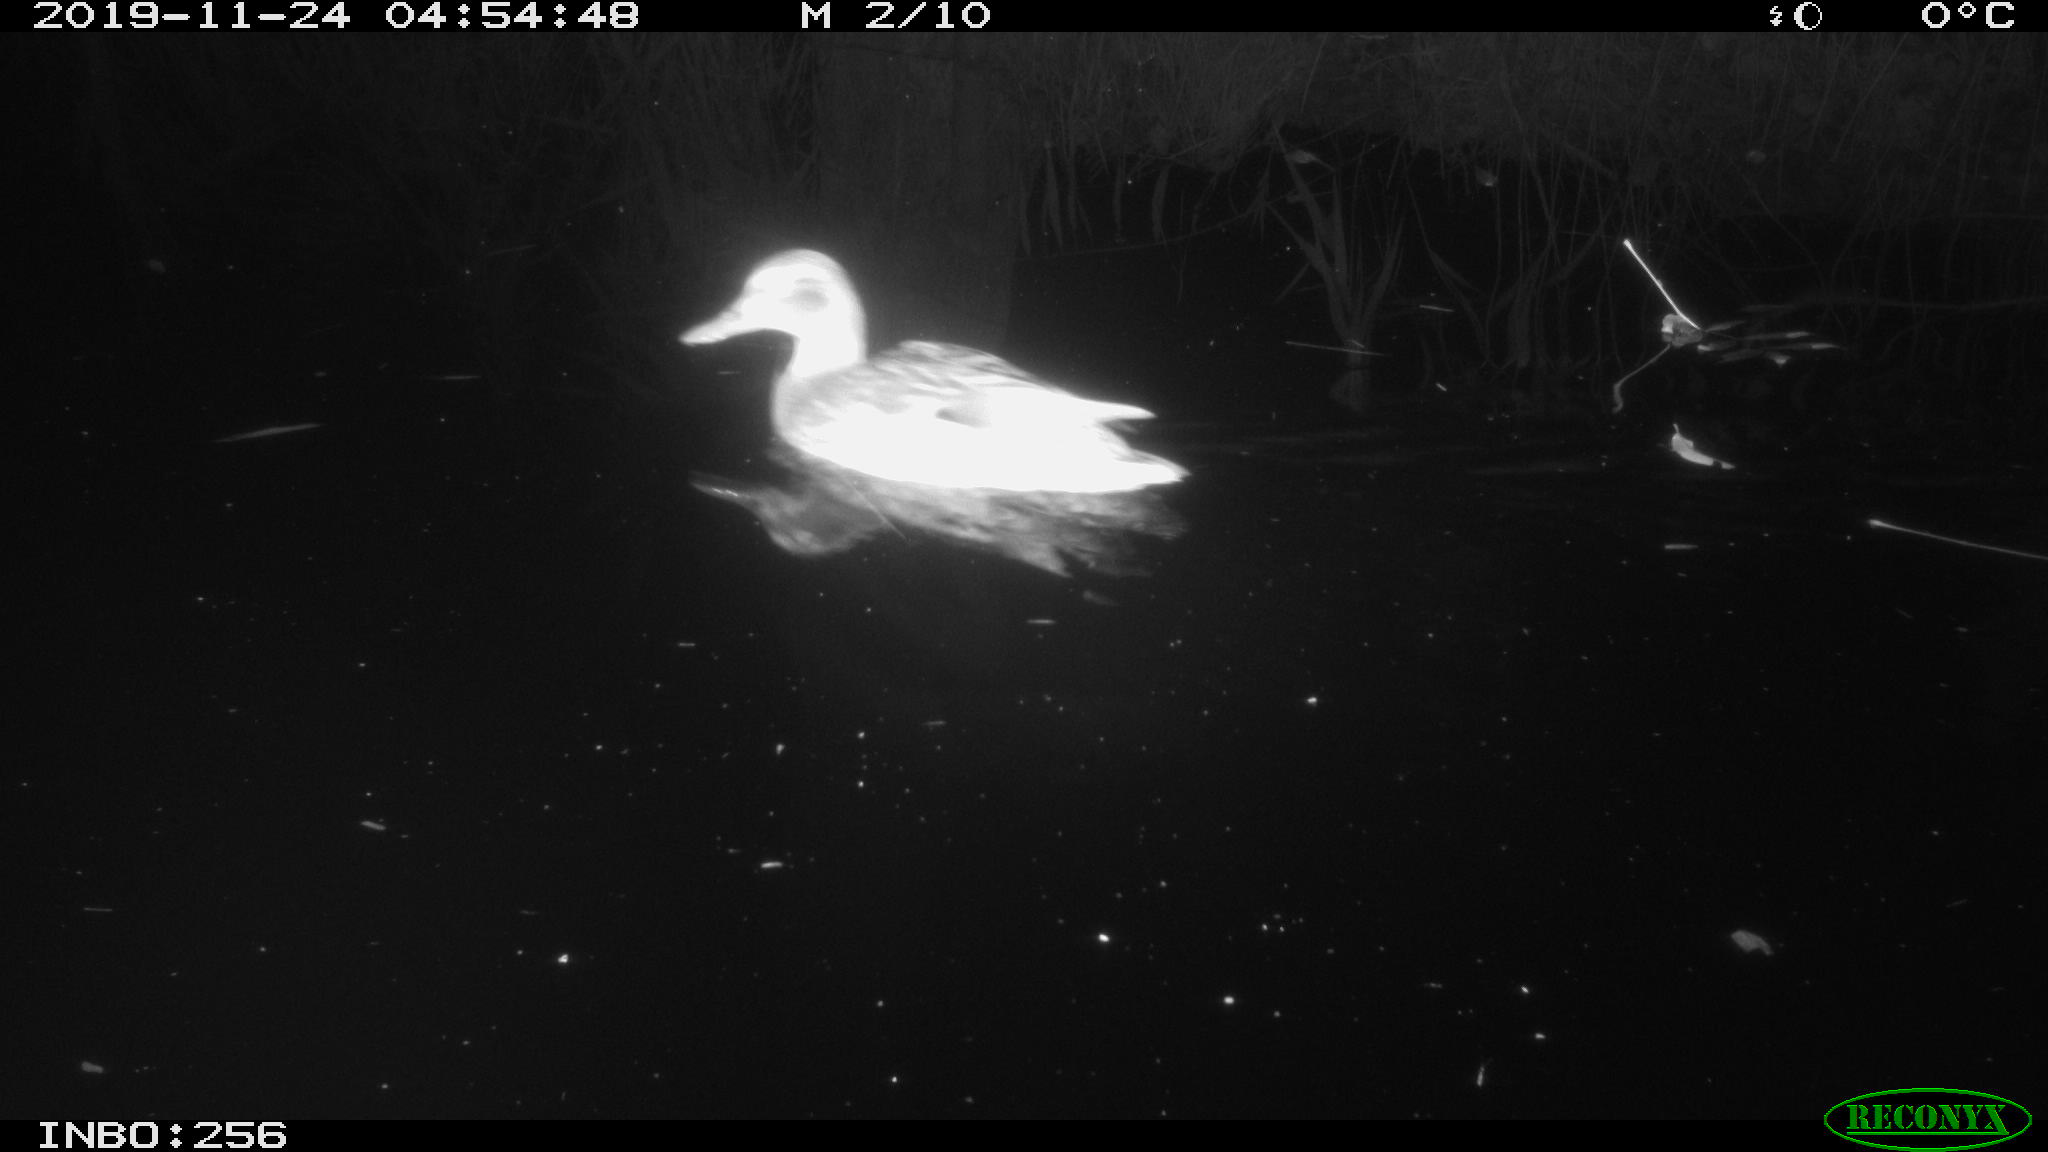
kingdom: Animalia
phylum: Chordata
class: Aves
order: Anseriformes
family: Anatidae
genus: Anas
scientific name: Anas platyrhynchos
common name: Mallard
